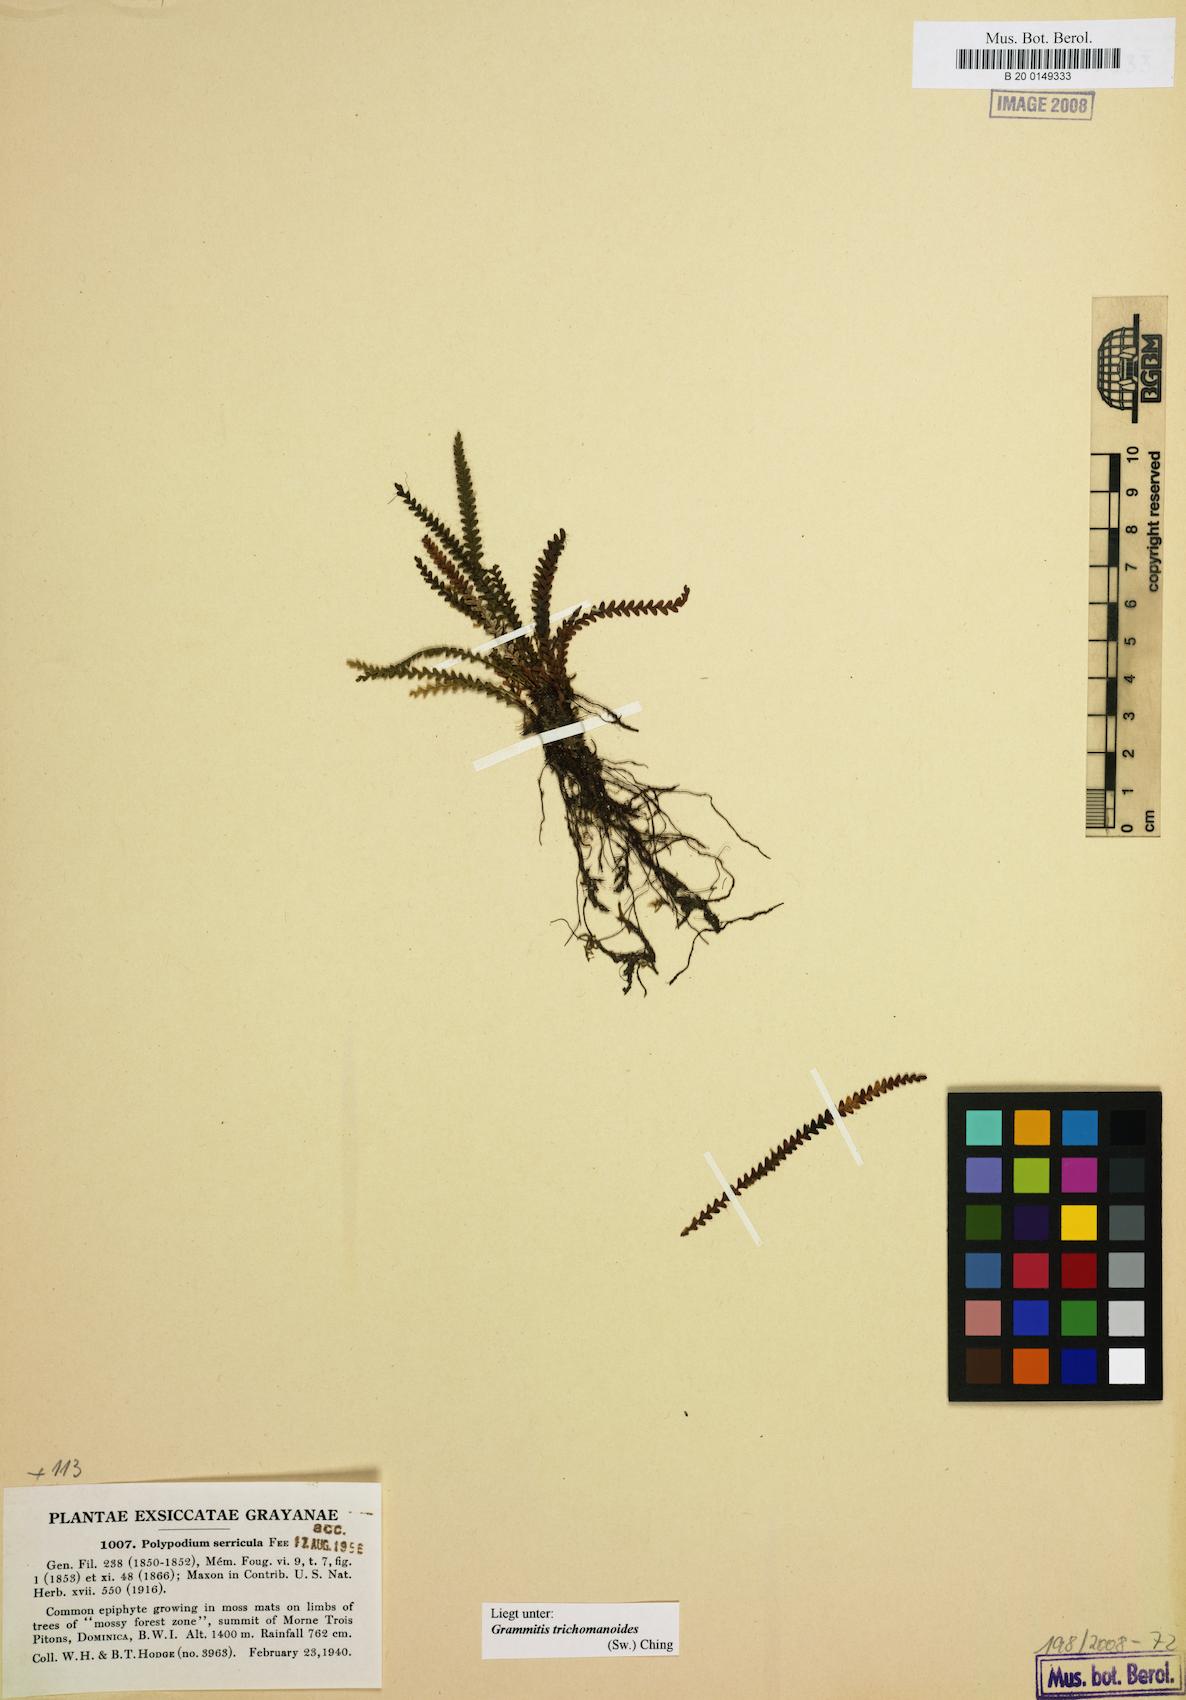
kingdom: Plantae
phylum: Tracheophyta
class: Polypodiopsida
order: Polypodiales
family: Polypodiaceae
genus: Moranopteris
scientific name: Moranopteris serricula
